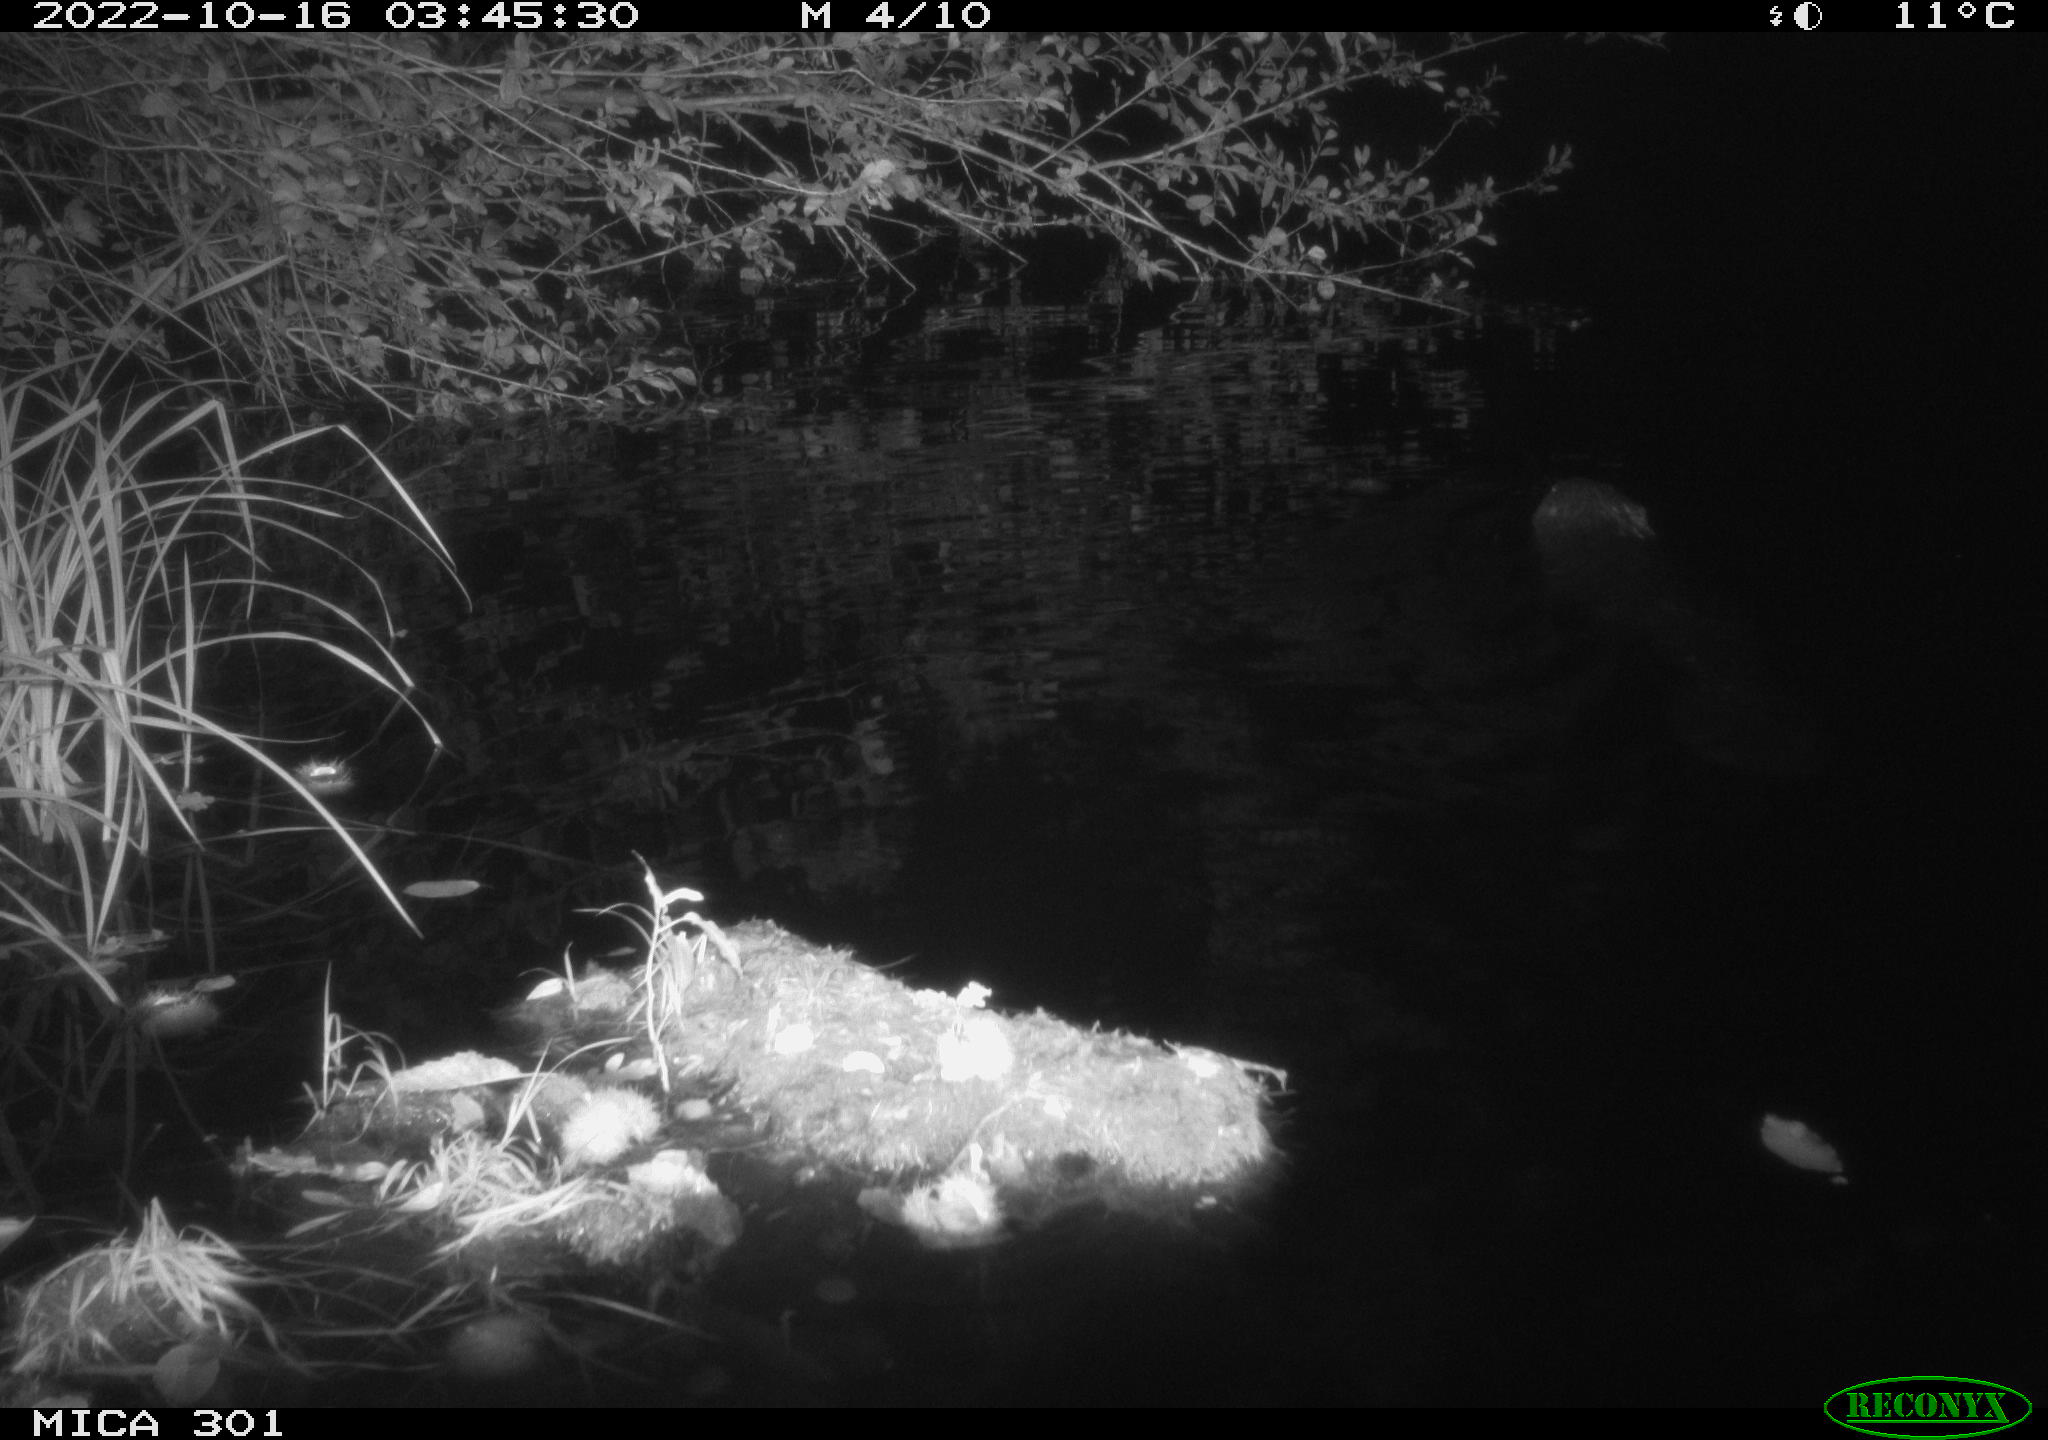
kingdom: Animalia
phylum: Chordata
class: Mammalia
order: Rodentia
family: Castoridae
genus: Castor
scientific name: Castor fiber
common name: Eurasian beaver
